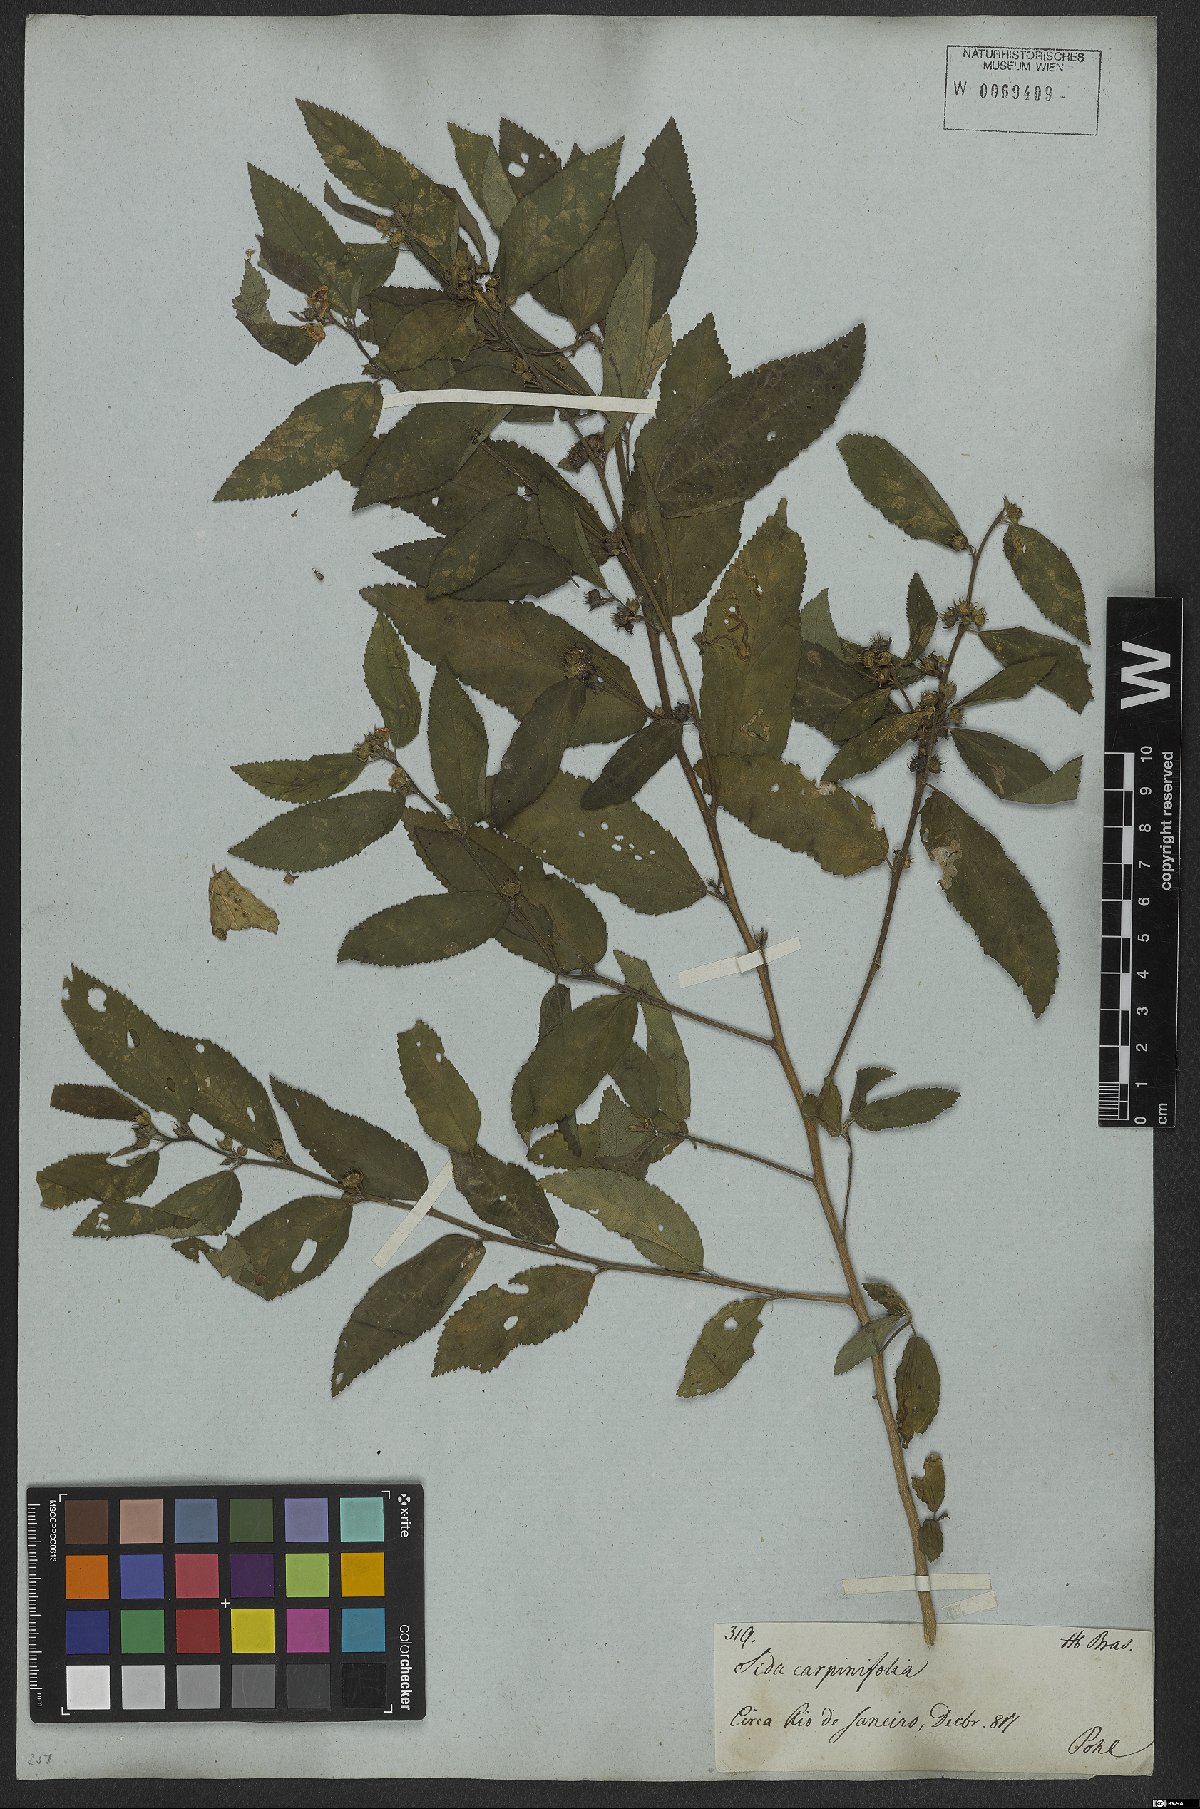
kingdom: Plantae
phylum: Tracheophyta
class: Magnoliopsida
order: Malvales
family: Malvaceae
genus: Sida
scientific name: Sida acuta
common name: Common wireweed
